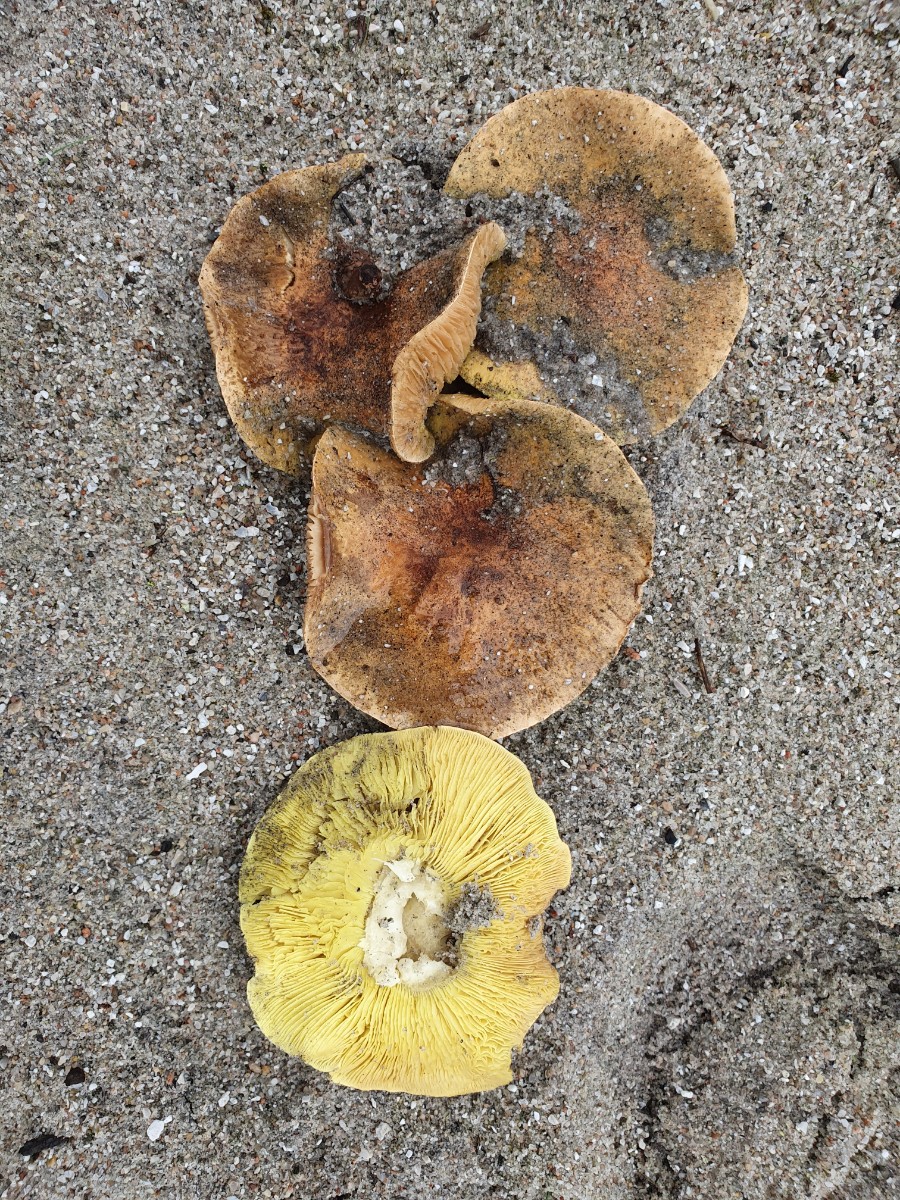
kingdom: Fungi
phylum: Basidiomycota
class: Agaricomycetes
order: Agaricales
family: Tricholomataceae
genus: Tricholoma
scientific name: Tricholoma equestre
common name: ægte ridderhat
